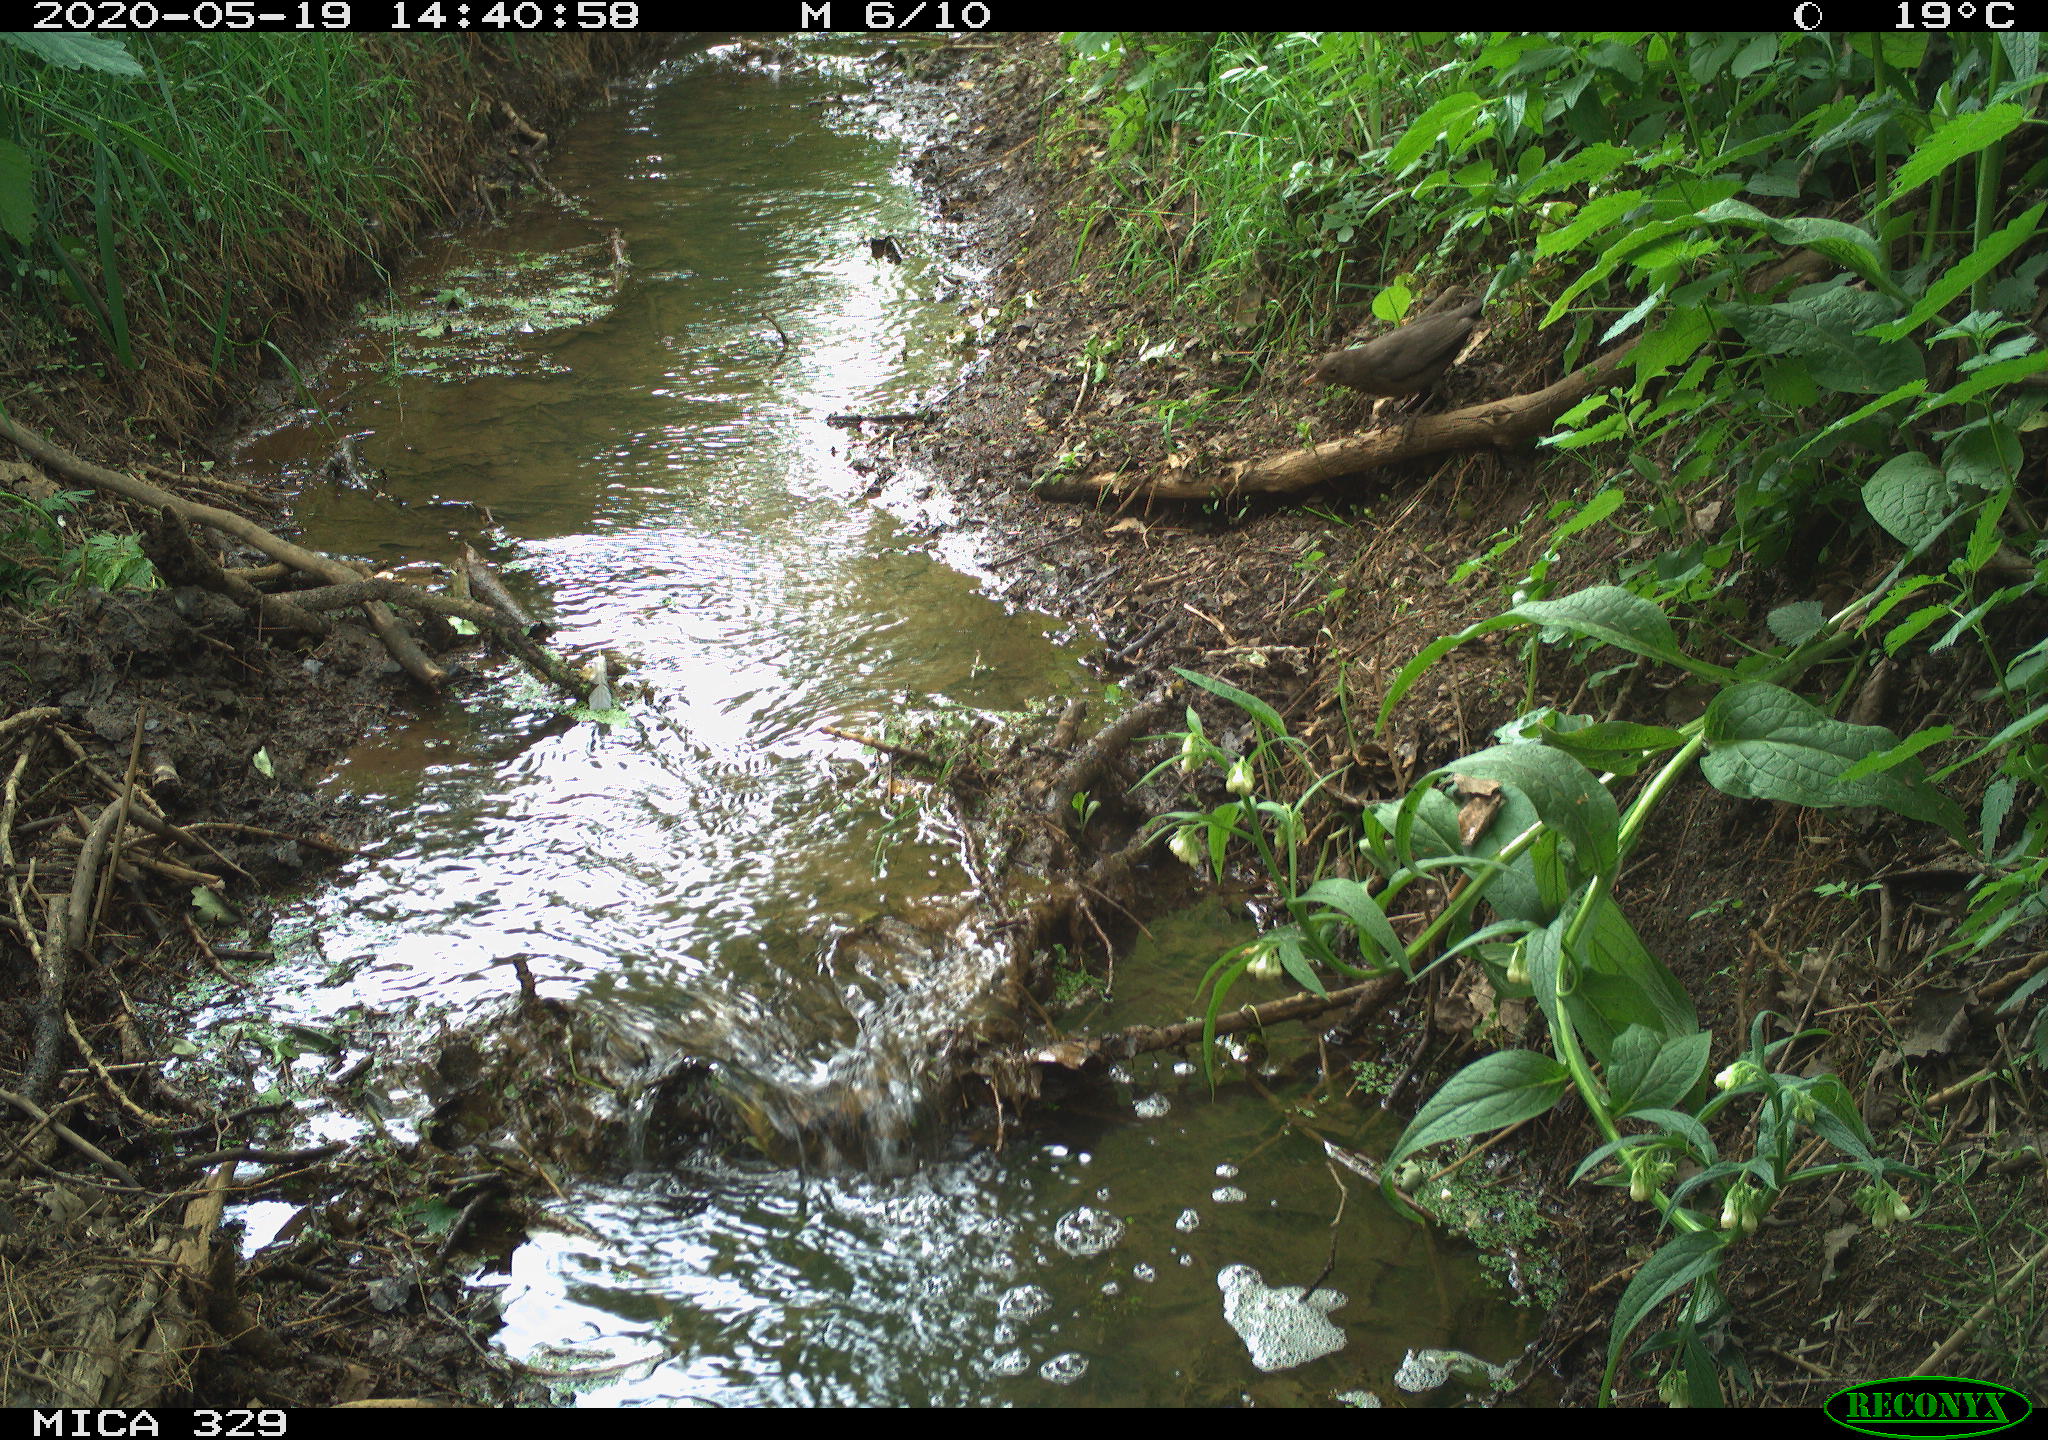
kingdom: Animalia
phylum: Chordata
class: Aves
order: Passeriformes
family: Turdidae
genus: Turdus
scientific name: Turdus merula
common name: Common blackbird
